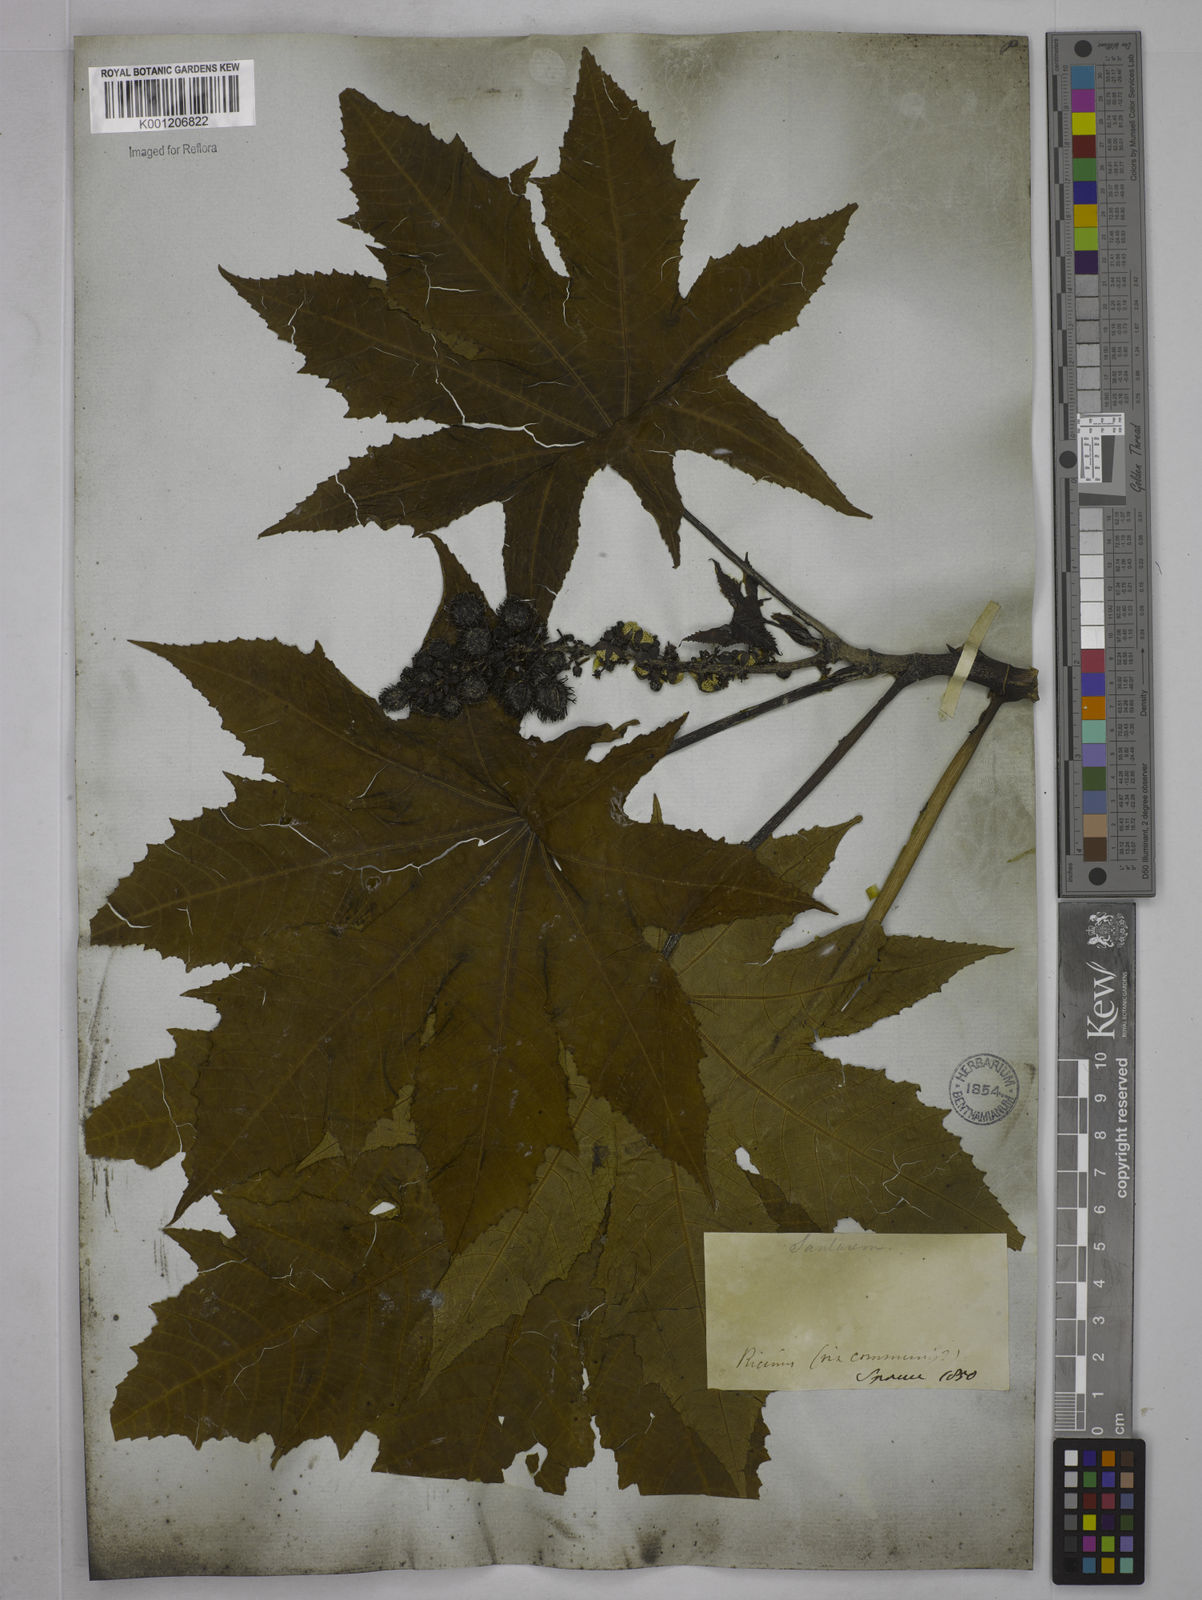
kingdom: Plantae
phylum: Tracheophyta
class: Magnoliopsida
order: Malpighiales
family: Euphorbiaceae
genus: Ricinus
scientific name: Ricinus communis
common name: Castor-oil-plant
